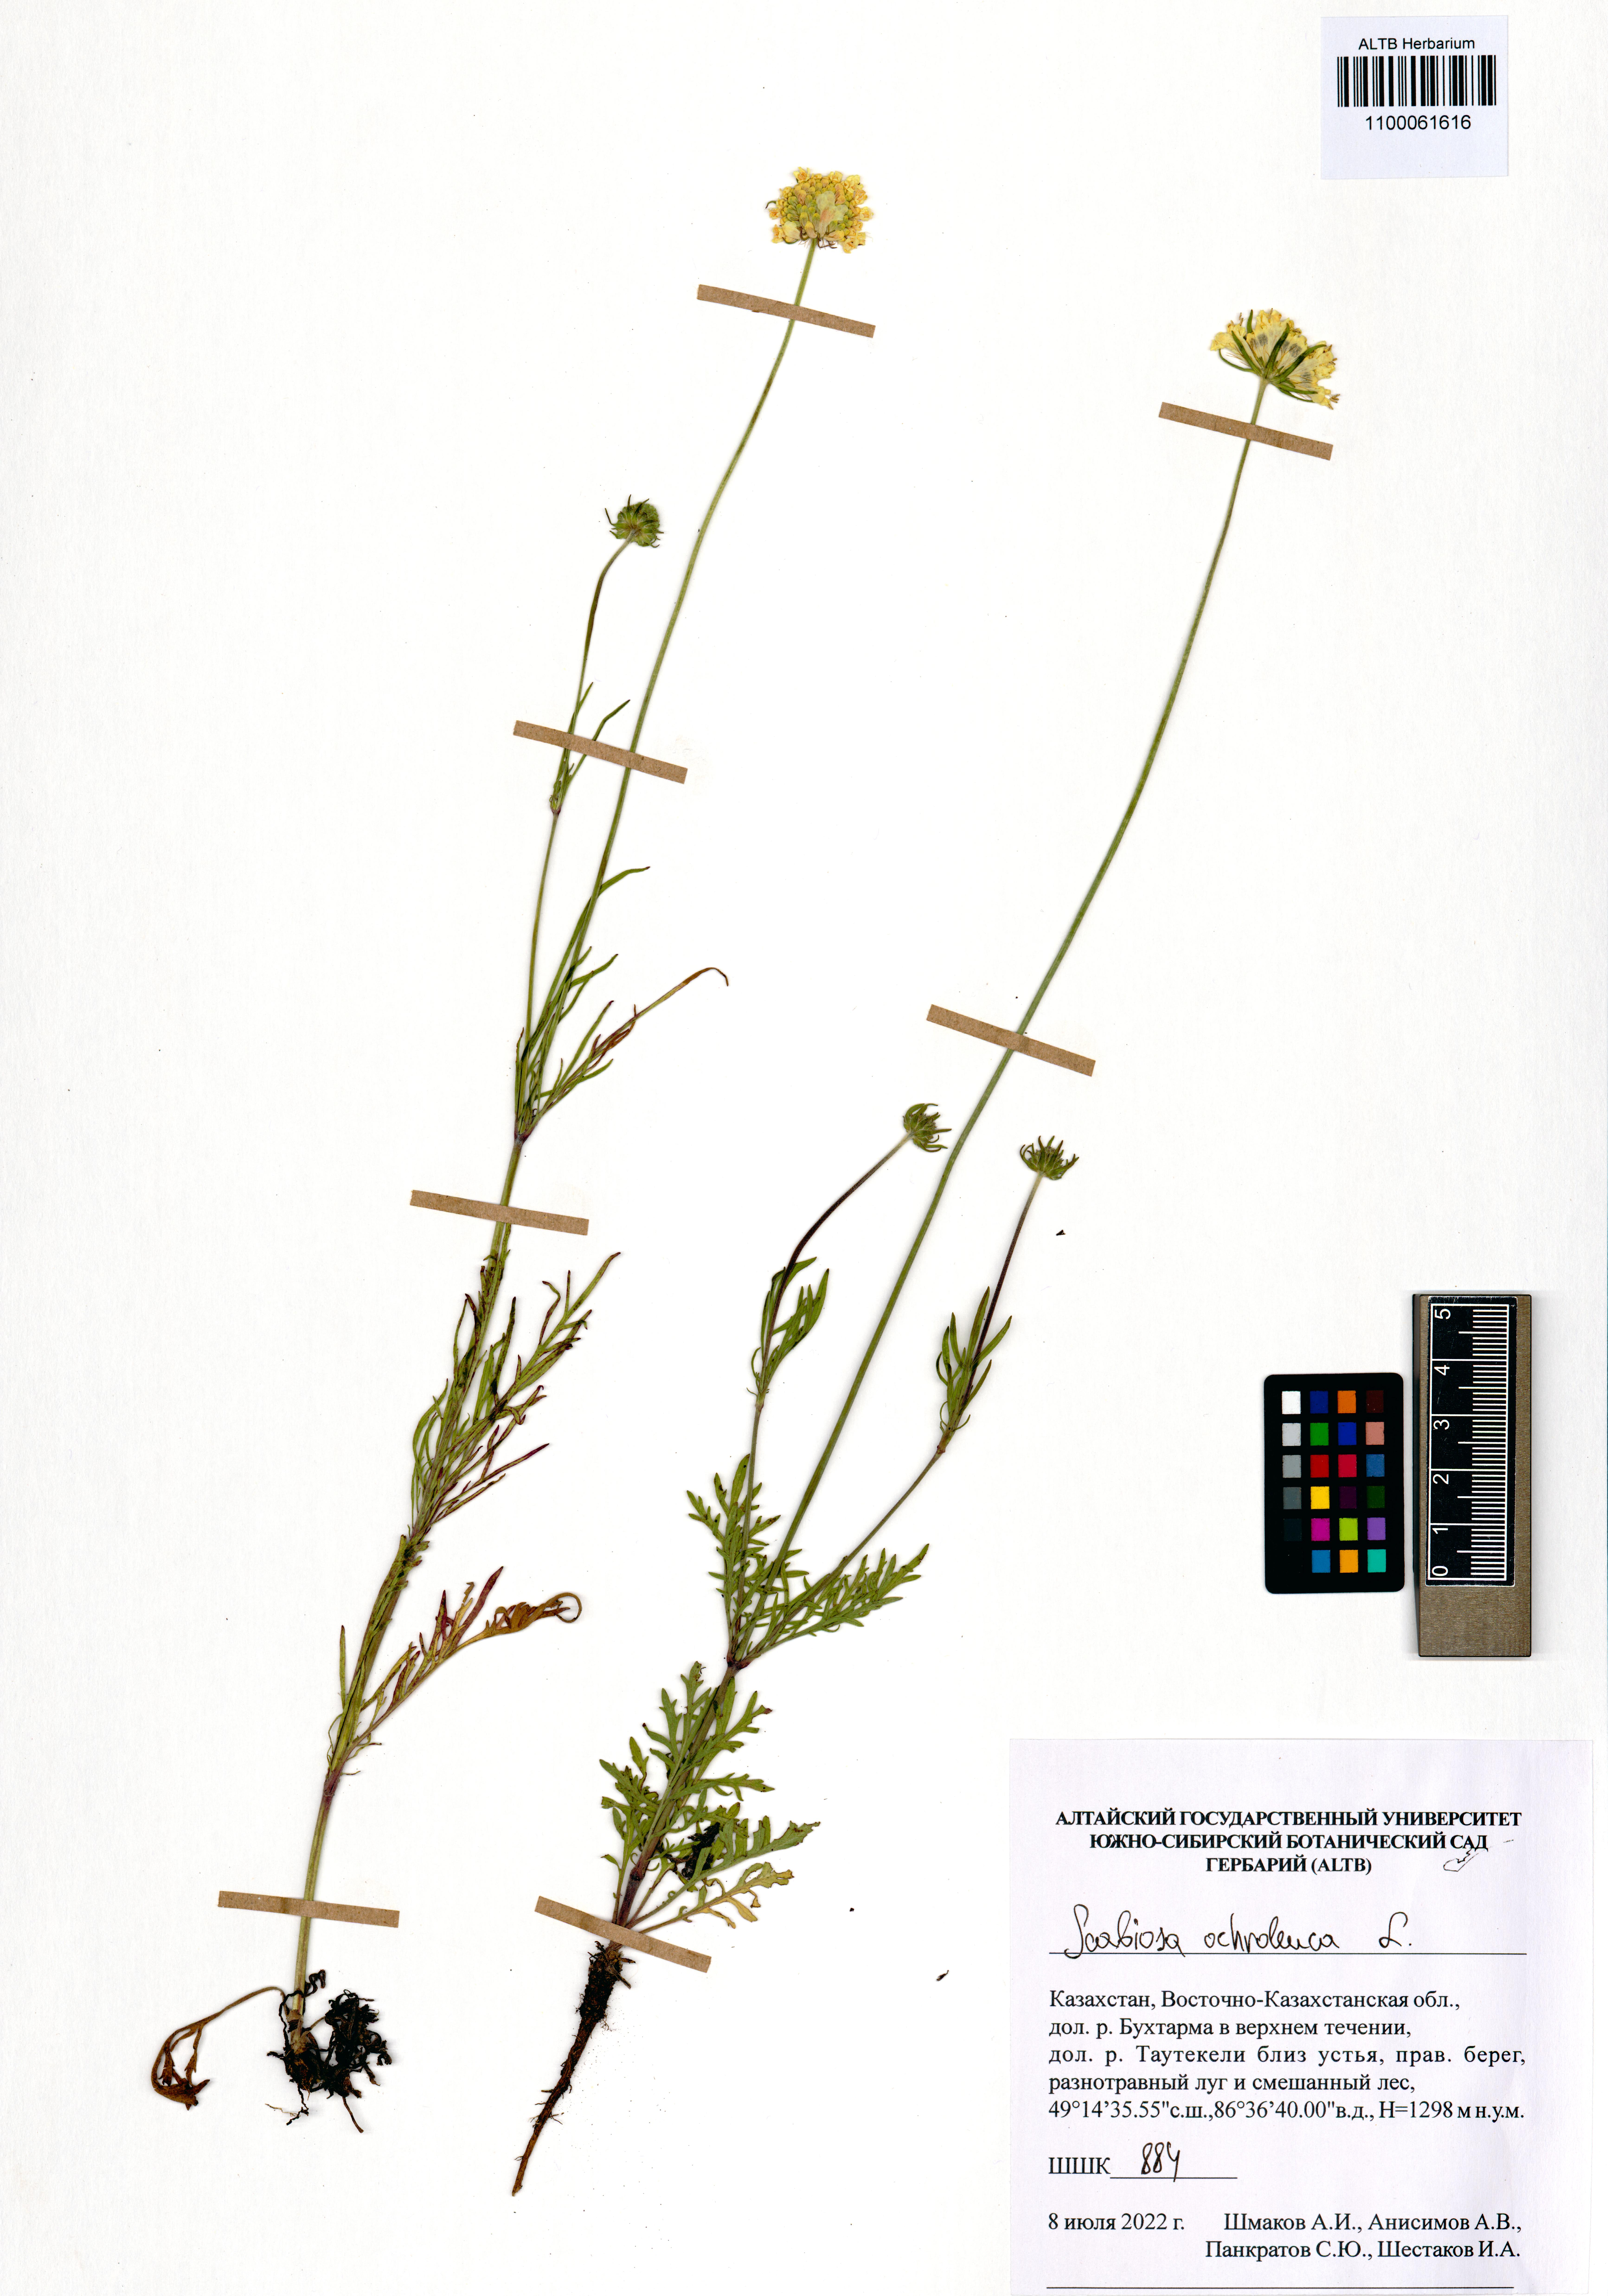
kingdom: Plantae
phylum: Tracheophyta
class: Magnoliopsida
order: Dipsacales
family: Caprifoliaceae
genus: Scabiosa
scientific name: Scabiosa ochroleuca
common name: Cream pincushions
